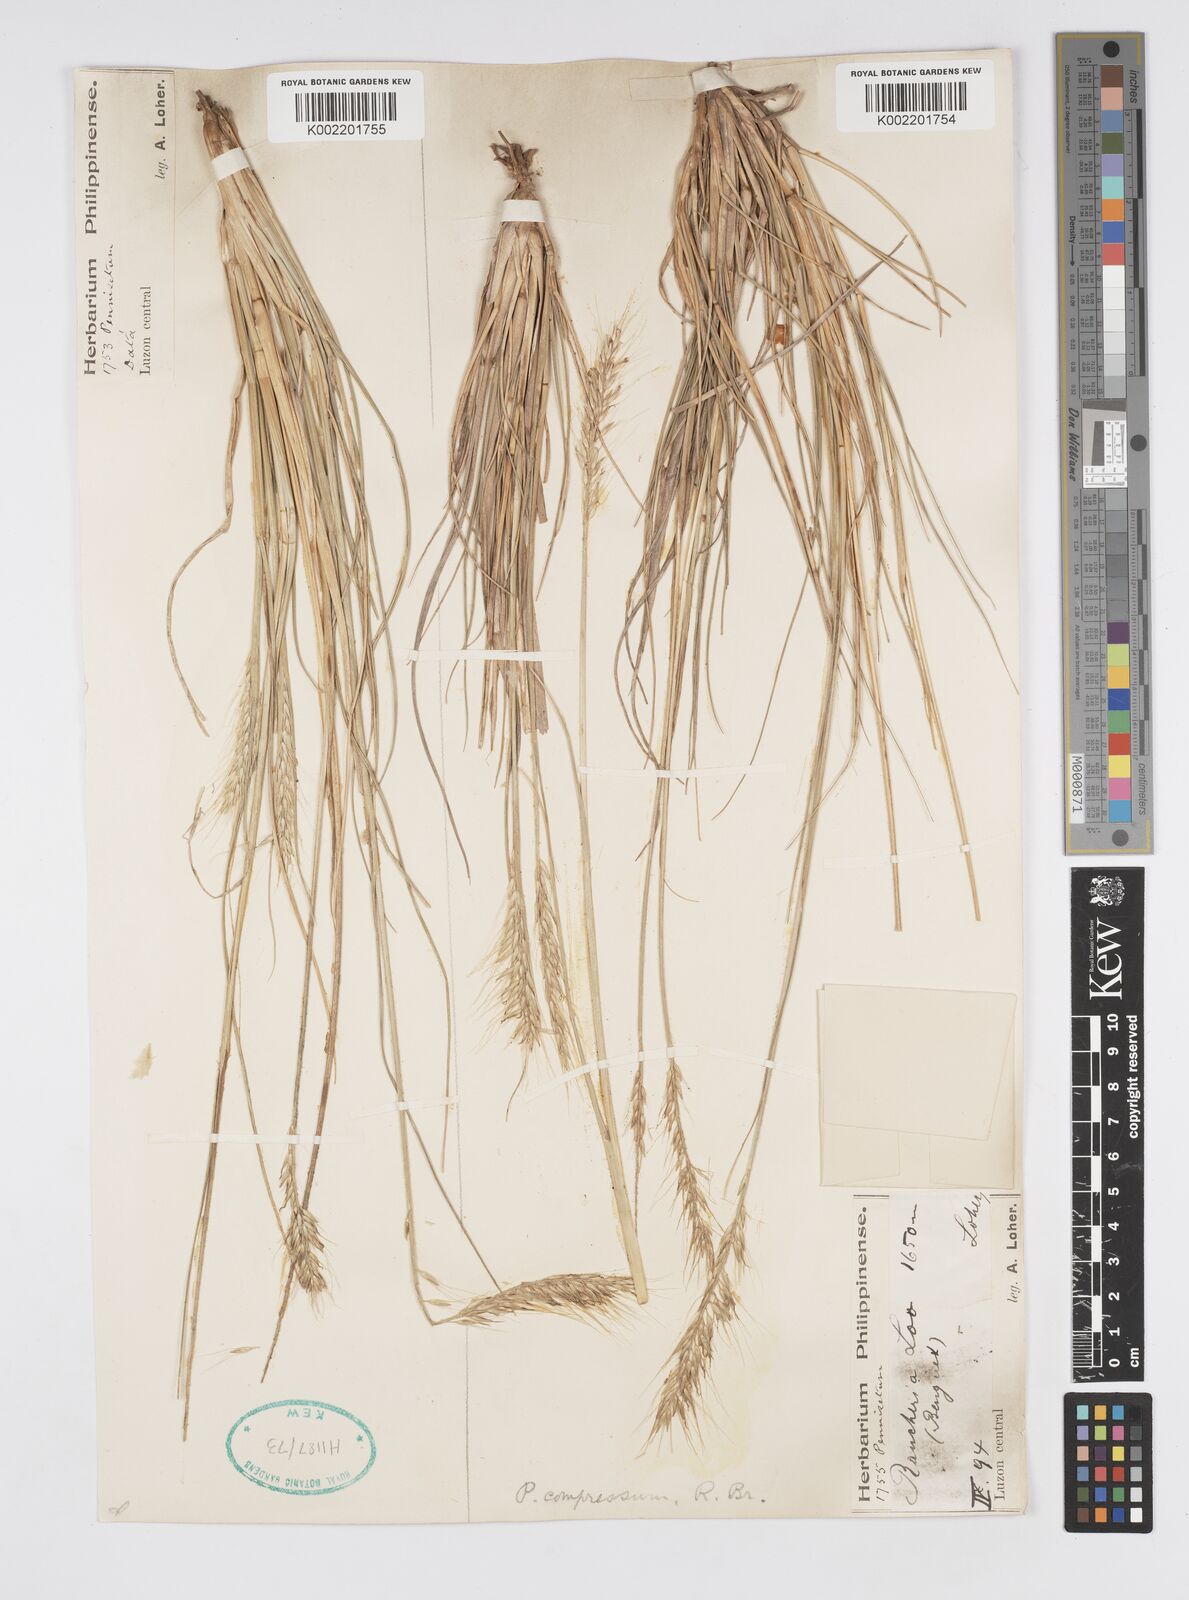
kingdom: Plantae
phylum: Tracheophyta
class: Liliopsida
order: Poales
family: Poaceae
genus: Cenchrus
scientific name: Cenchrus setosus
